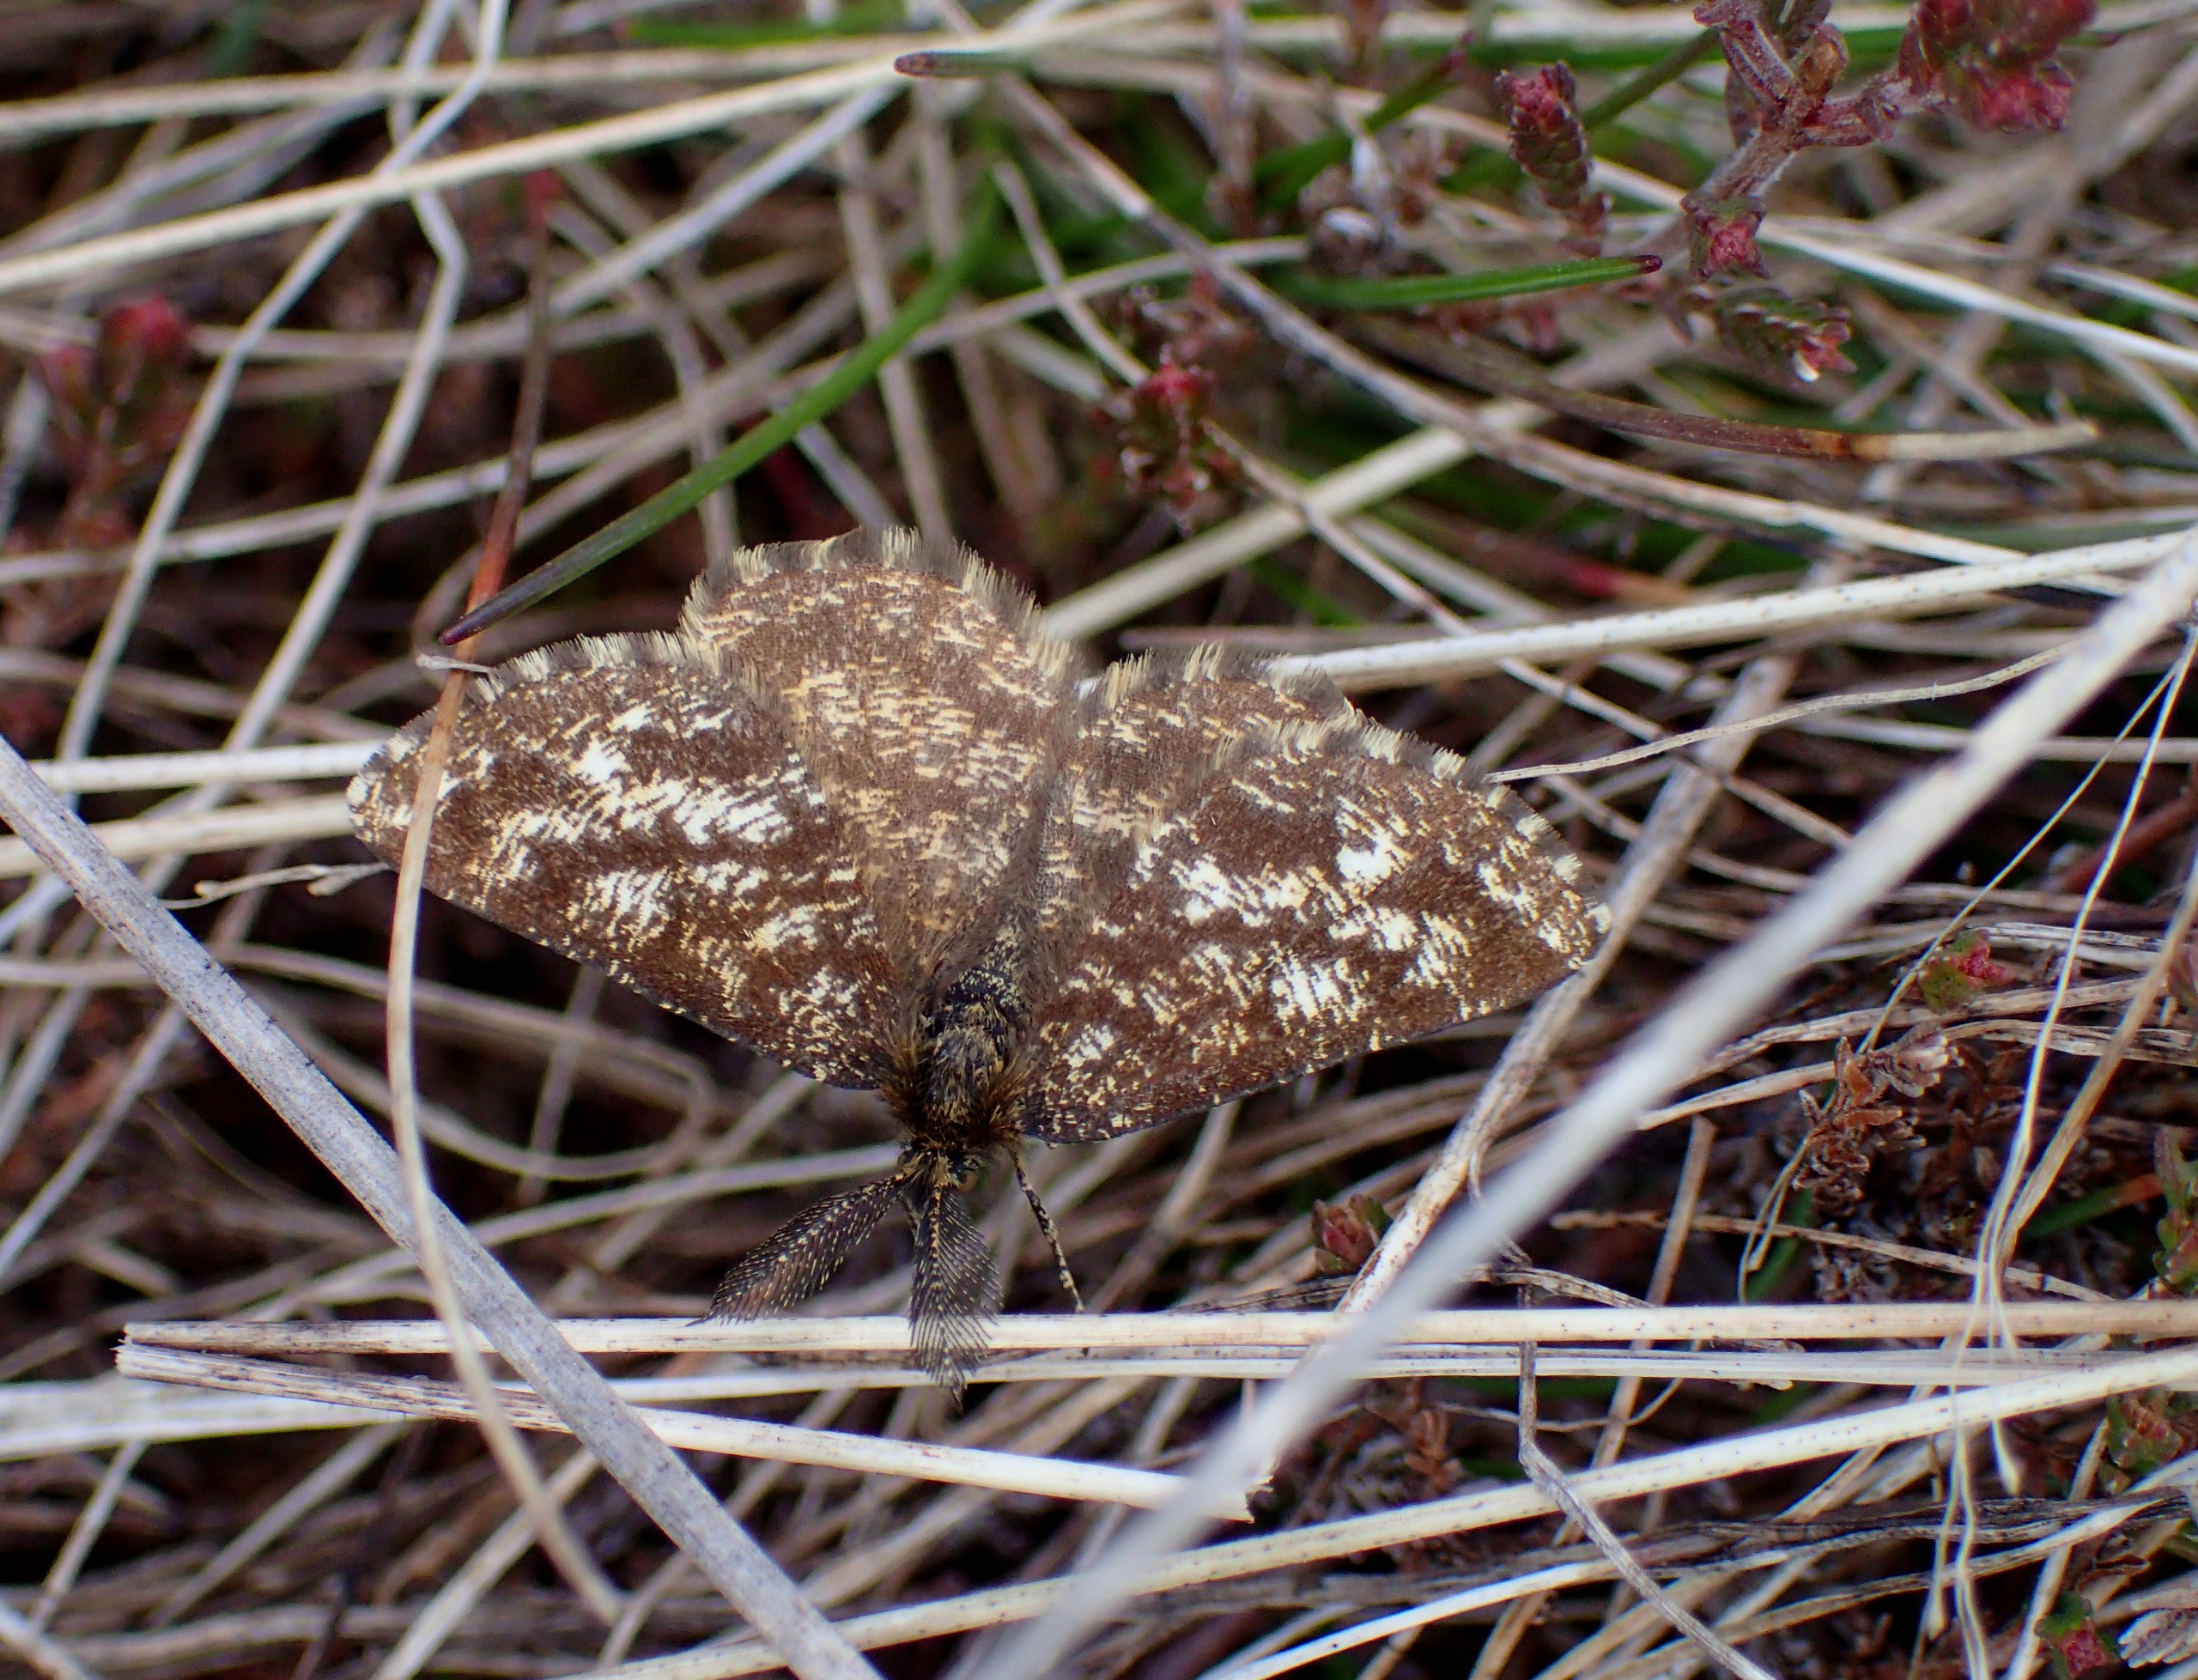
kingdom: Animalia
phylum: Arthropoda
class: Insecta
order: Lepidoptera
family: Geometridae
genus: Ematurga
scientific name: Ematurga atomaria
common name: Lyngmåler
